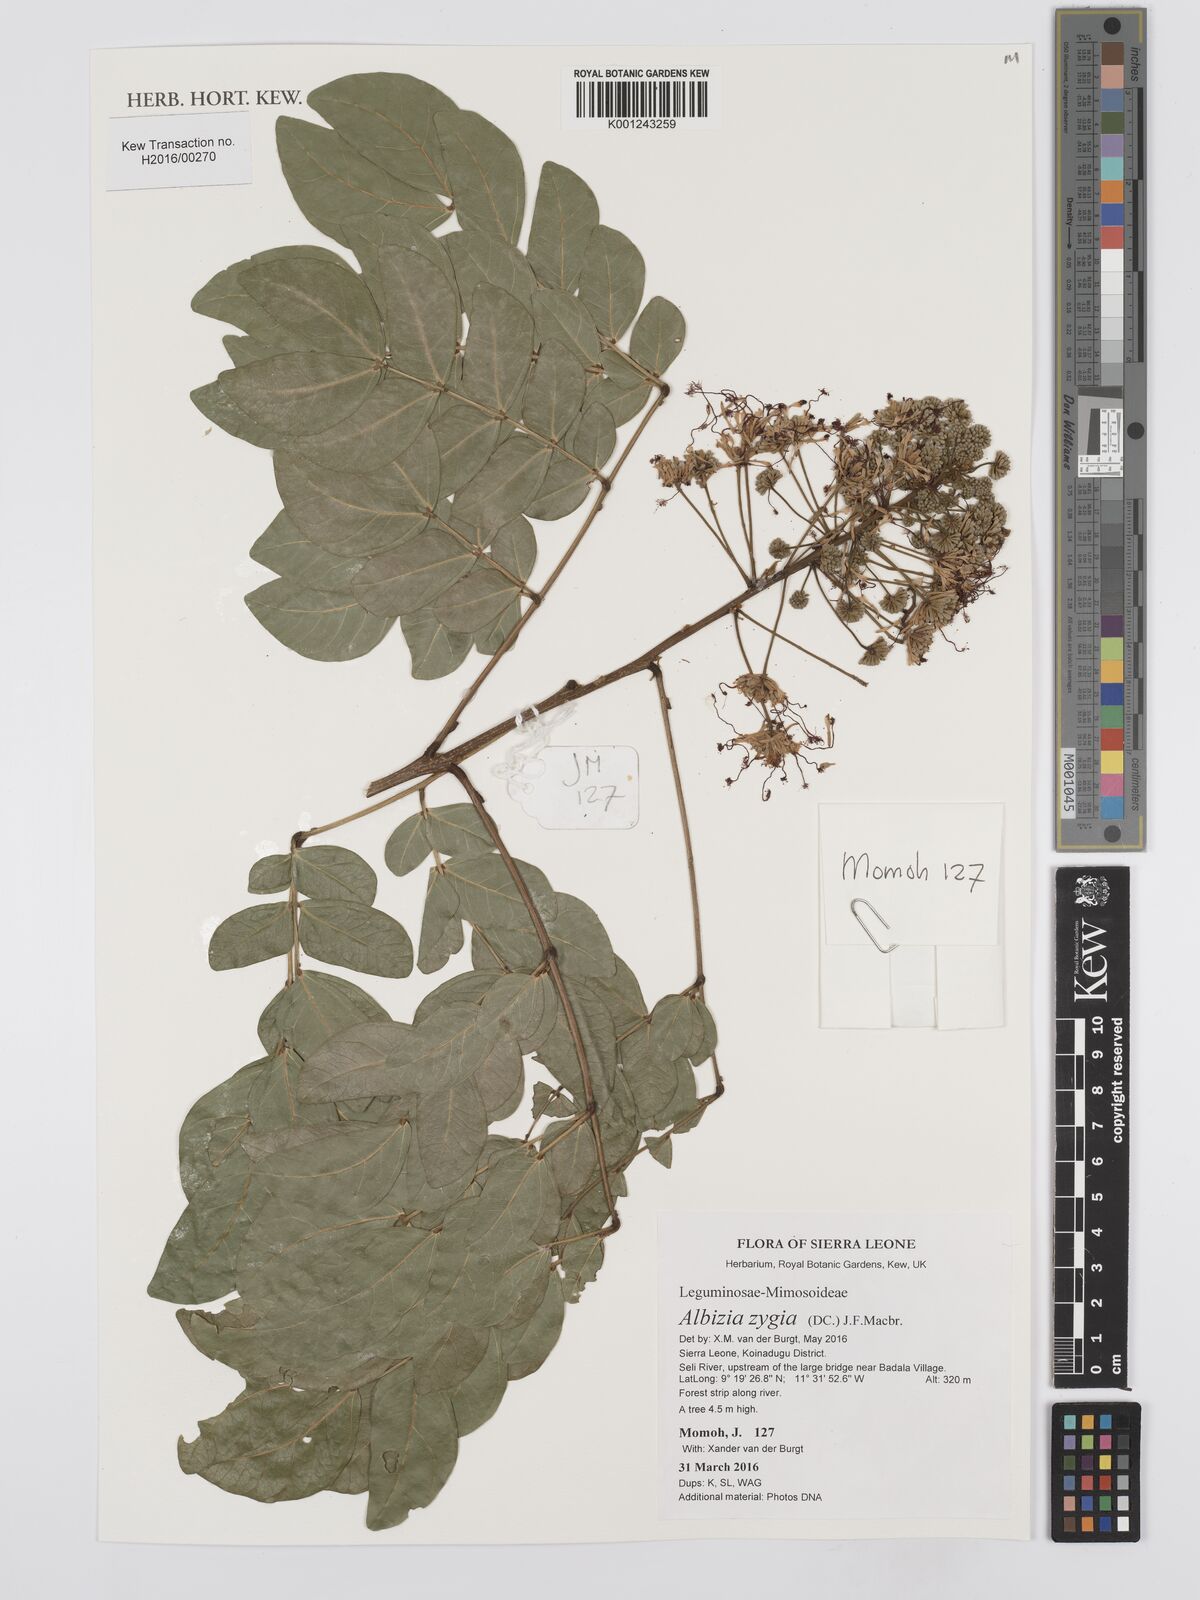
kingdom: Plantae
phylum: Tracheophyta
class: Magnoliopsida
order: Fabales
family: Fabaceae
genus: Albizia
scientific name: Albizia zygia
